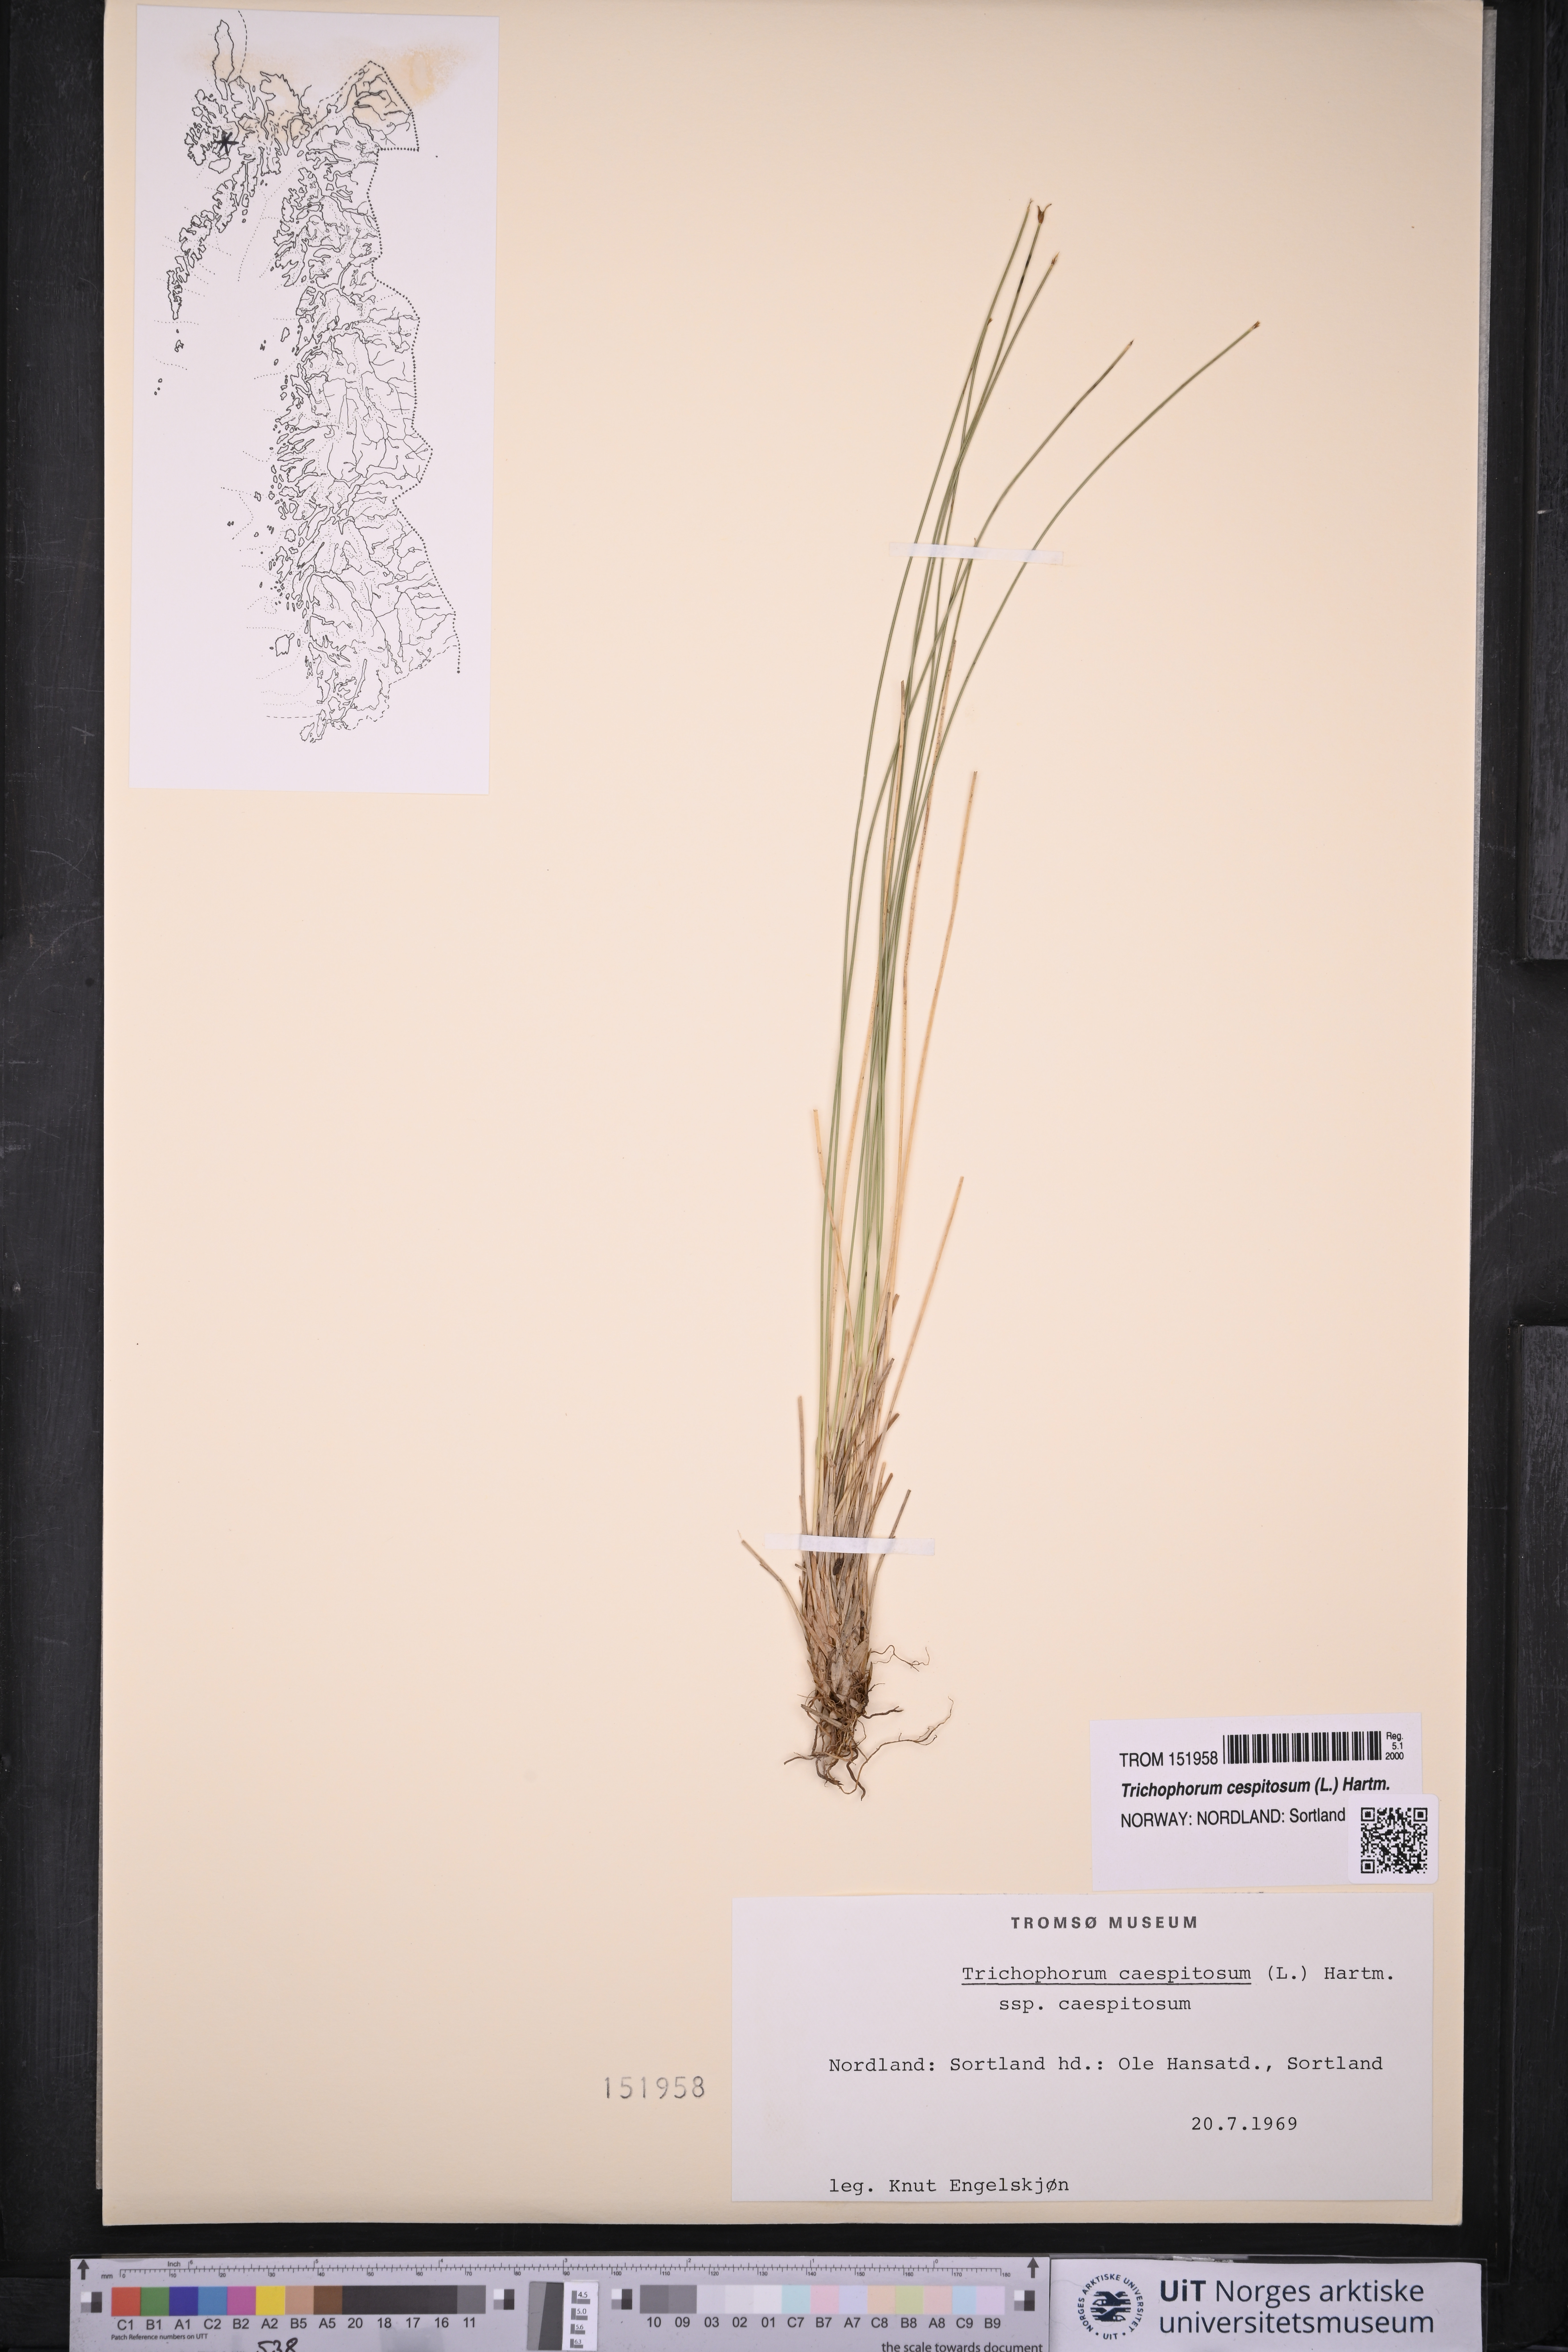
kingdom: Plantae
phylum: Tracheophyta
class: Liliopsida
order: Poales
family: Cyperaceae
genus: Trichophorum
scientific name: Trichophorum cespitosum
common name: Cespitose bulrush
